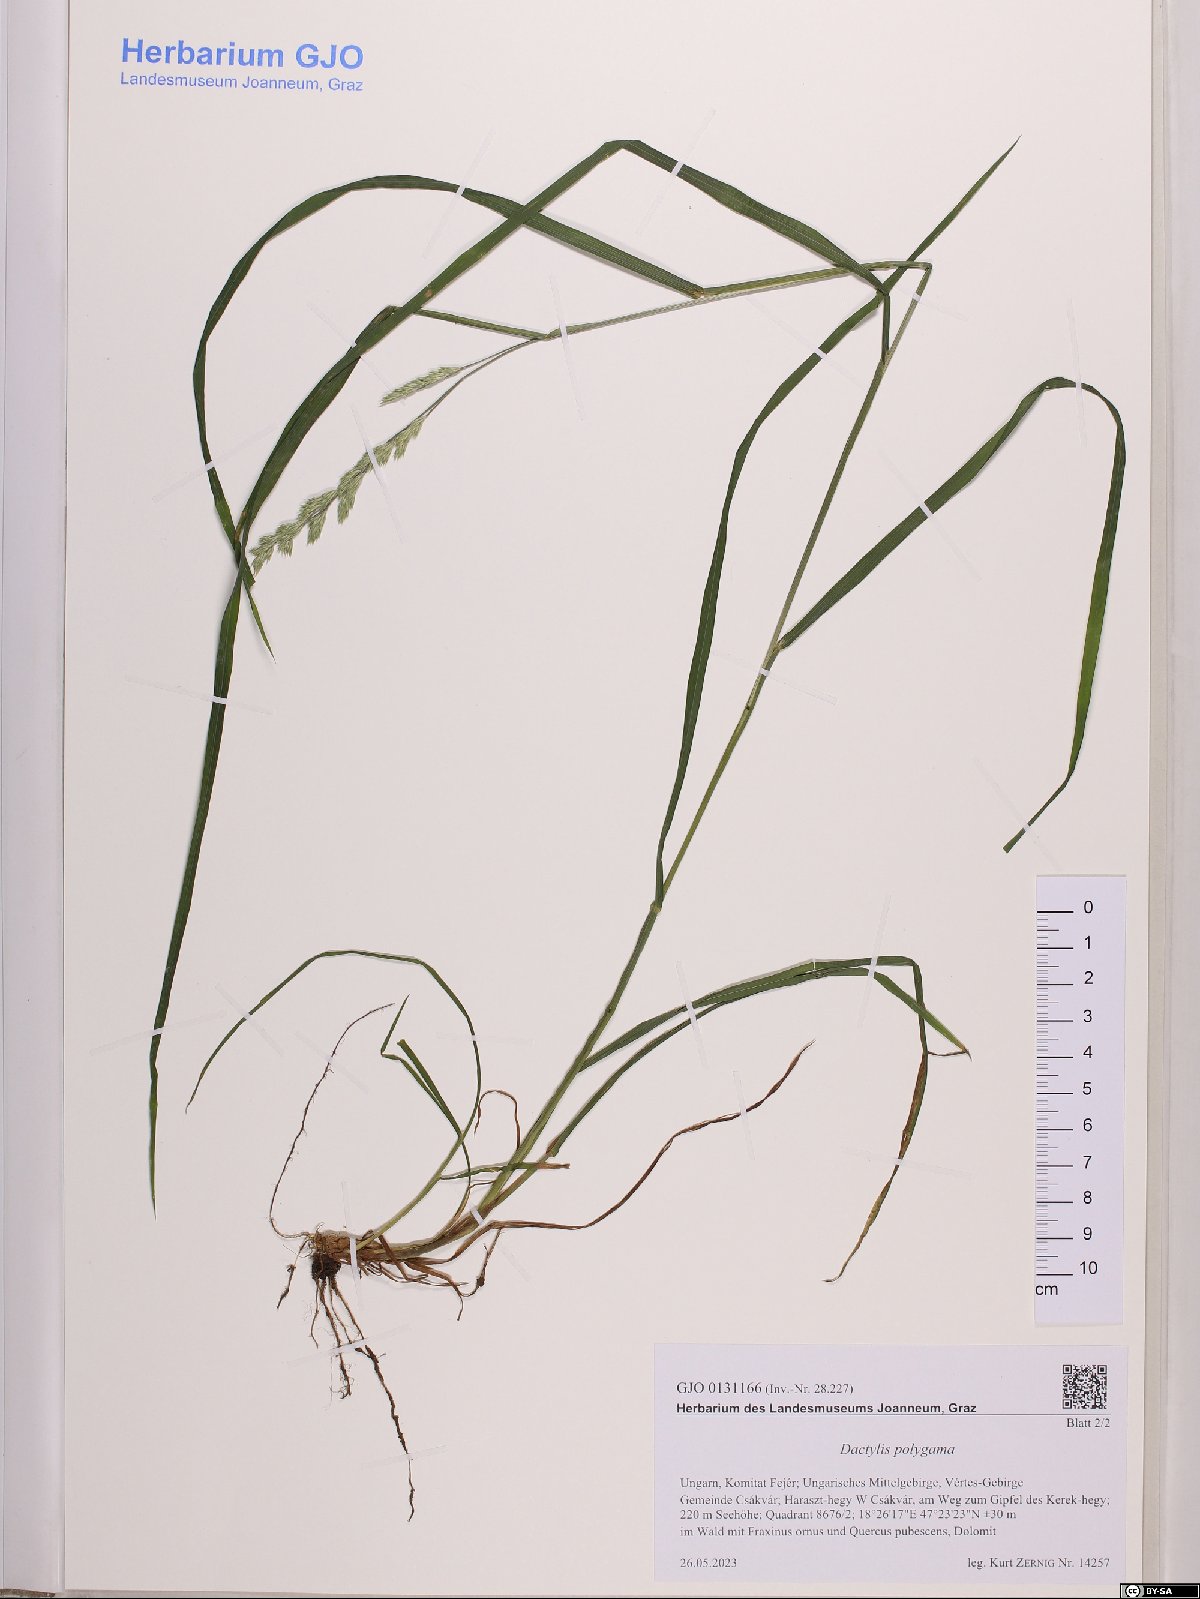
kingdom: Plantae
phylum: Tracheophyta
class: Liliopsida
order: Poales
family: Poaceae
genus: Dactylis
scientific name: Dactylis glomerata
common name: Orchardgrass
